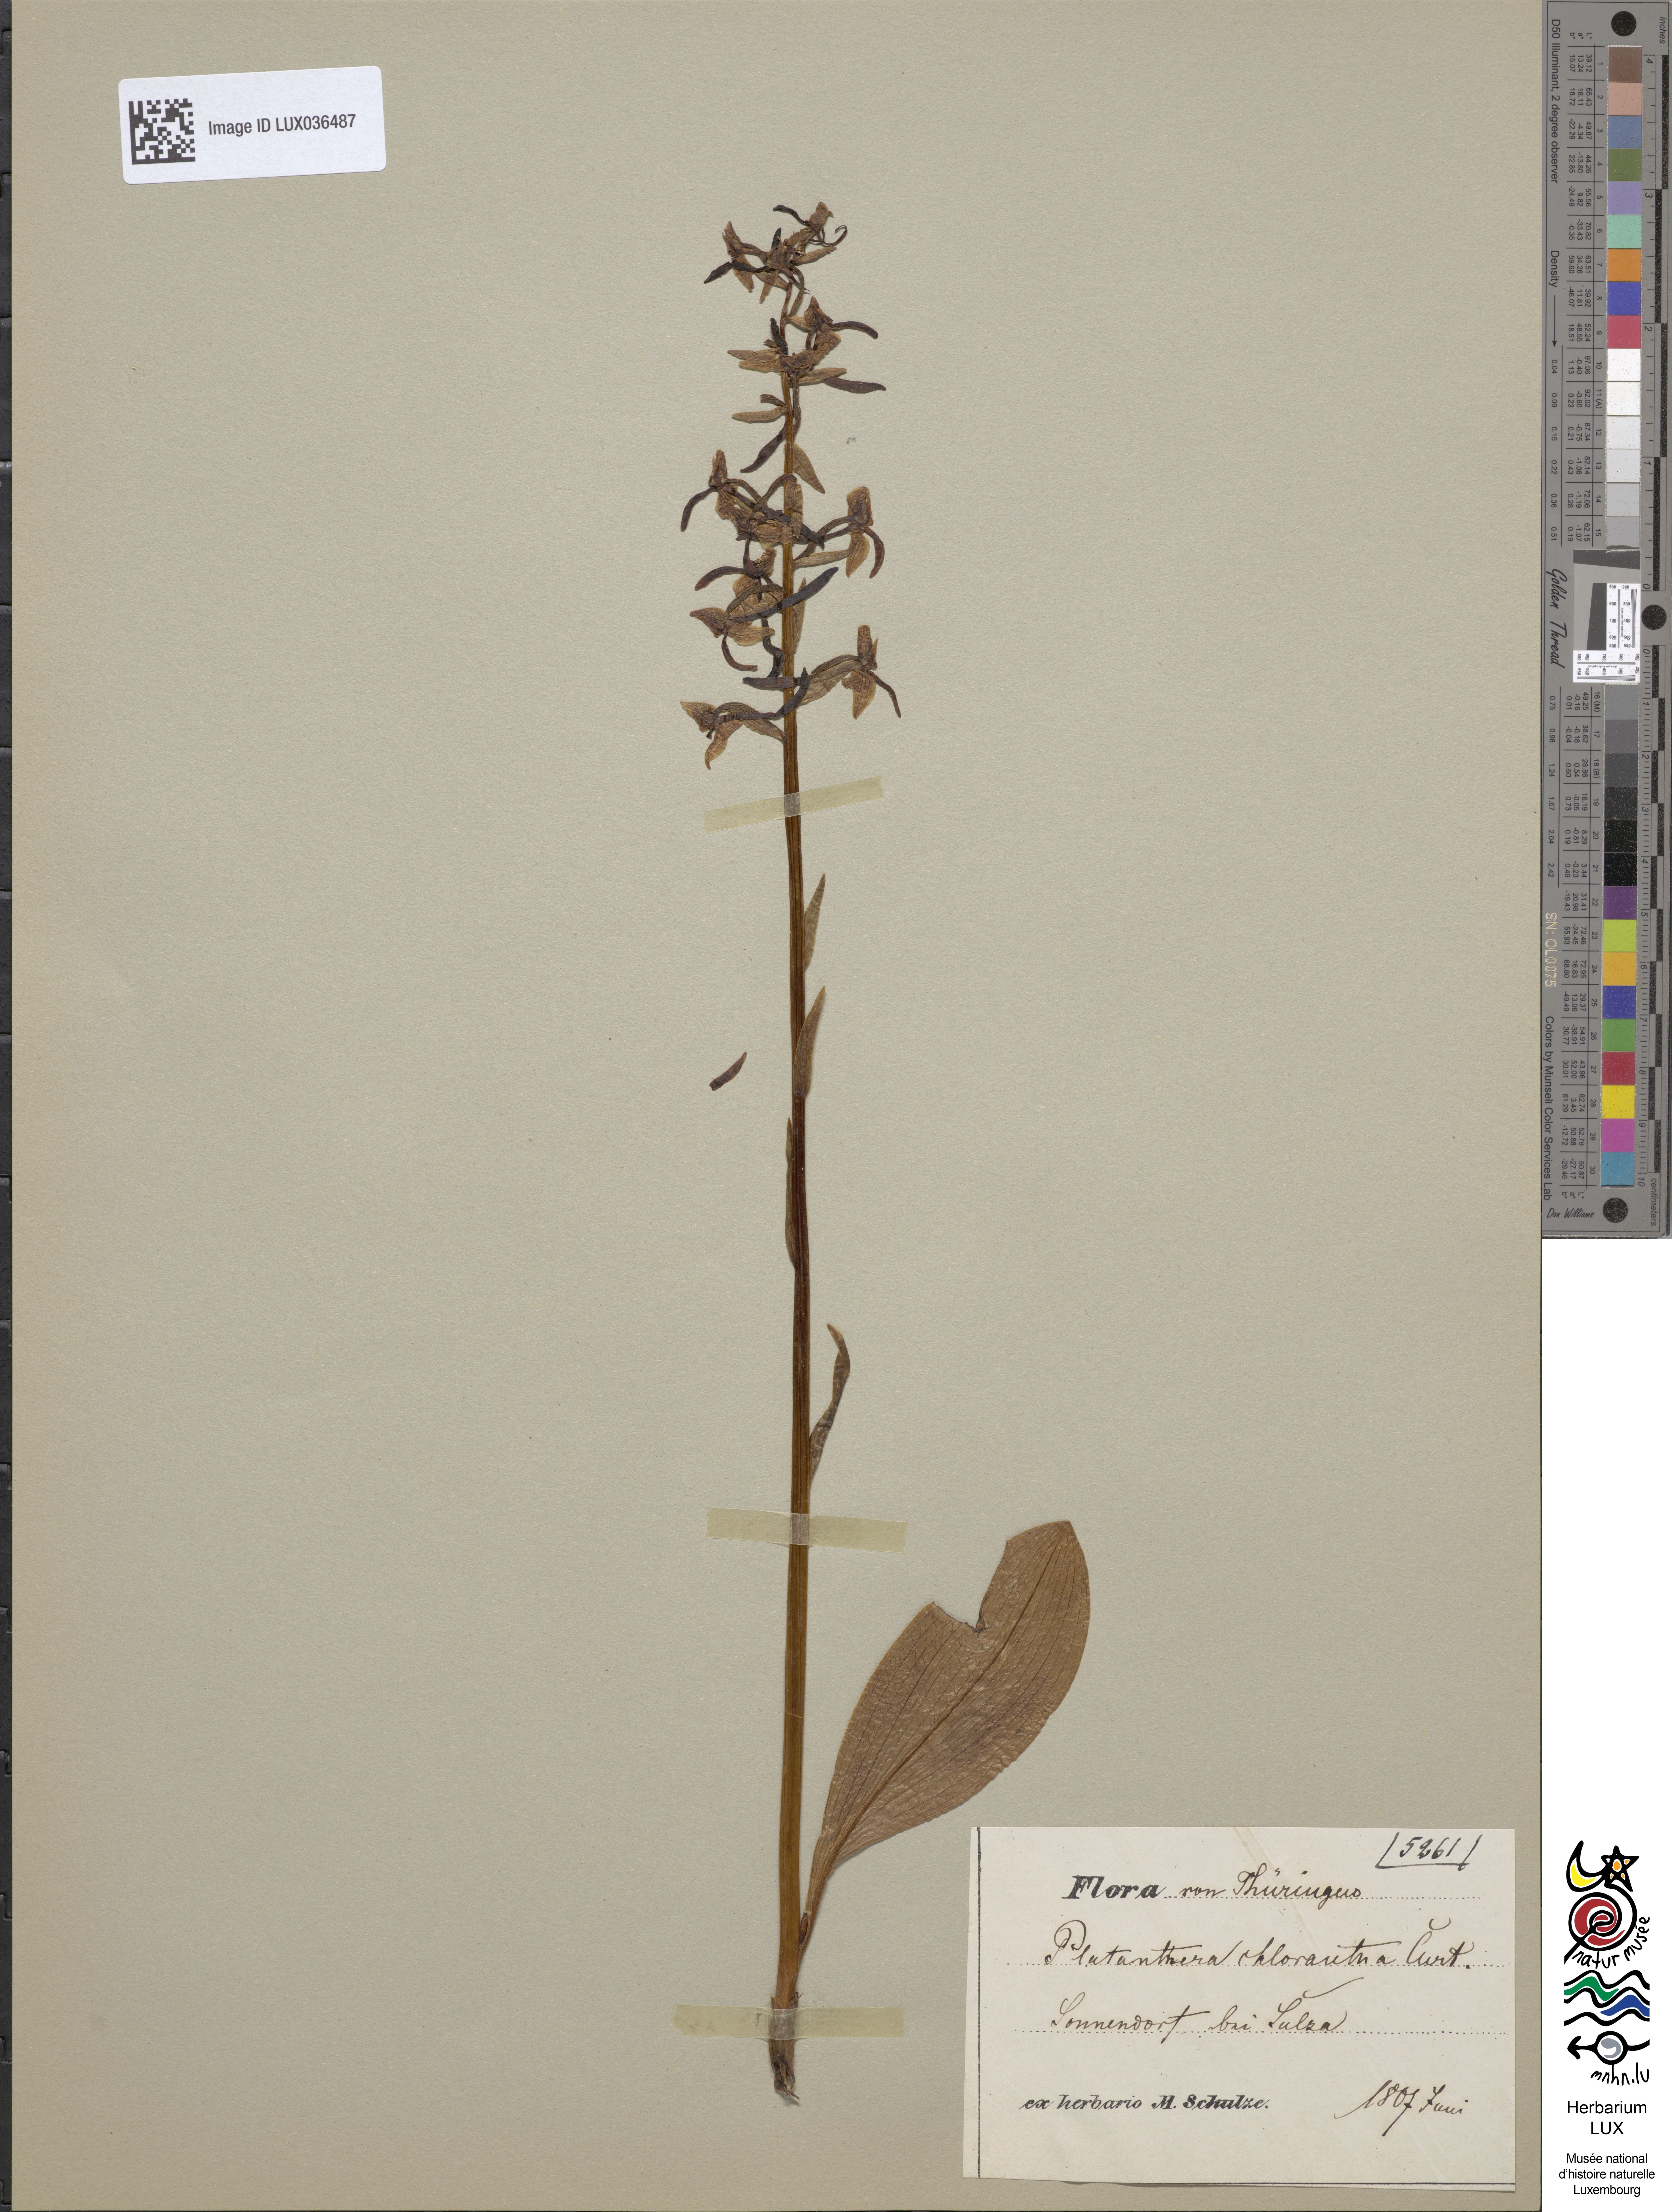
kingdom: Plantae
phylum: Tracheophyta
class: Liliopsida
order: Asparagales
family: Orchidaceae
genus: Platanthera
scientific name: Platanthera chlorantha
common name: Greater butterfly-orchid
